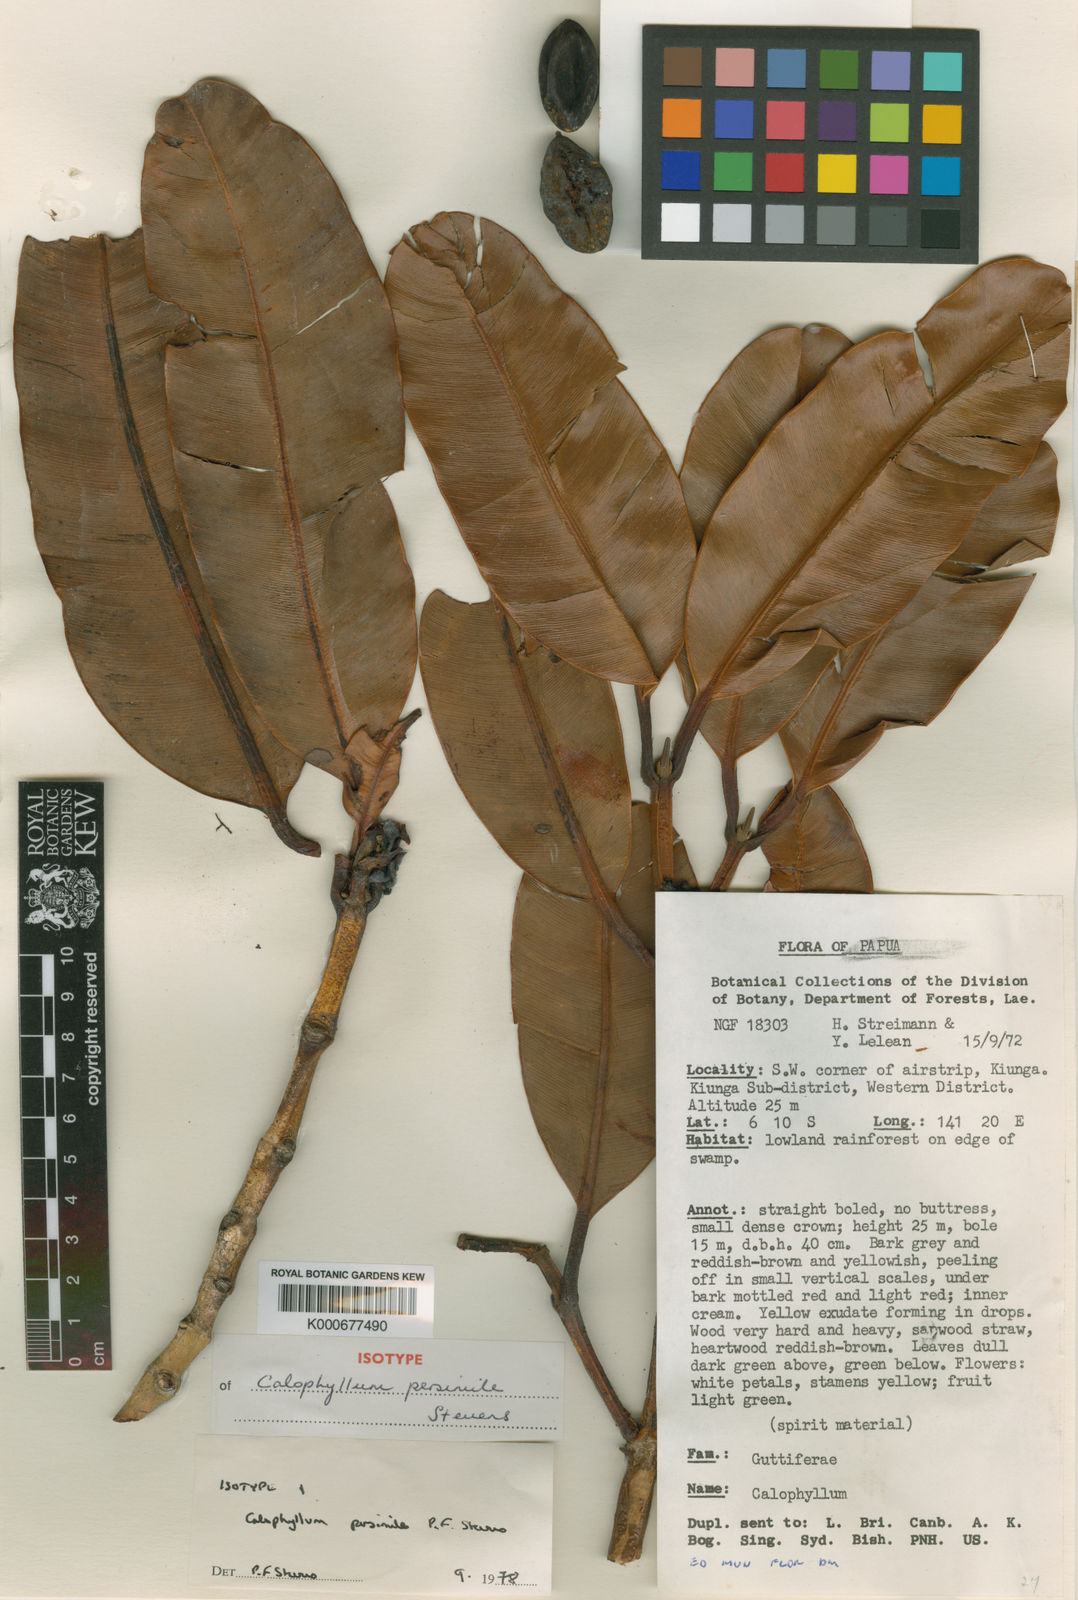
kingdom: Plantae
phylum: Tracheophyta
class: Magnoliopsida
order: Malpighiales
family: Calophyllaceae
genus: Calophyllum
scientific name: Calophyllum persimile
